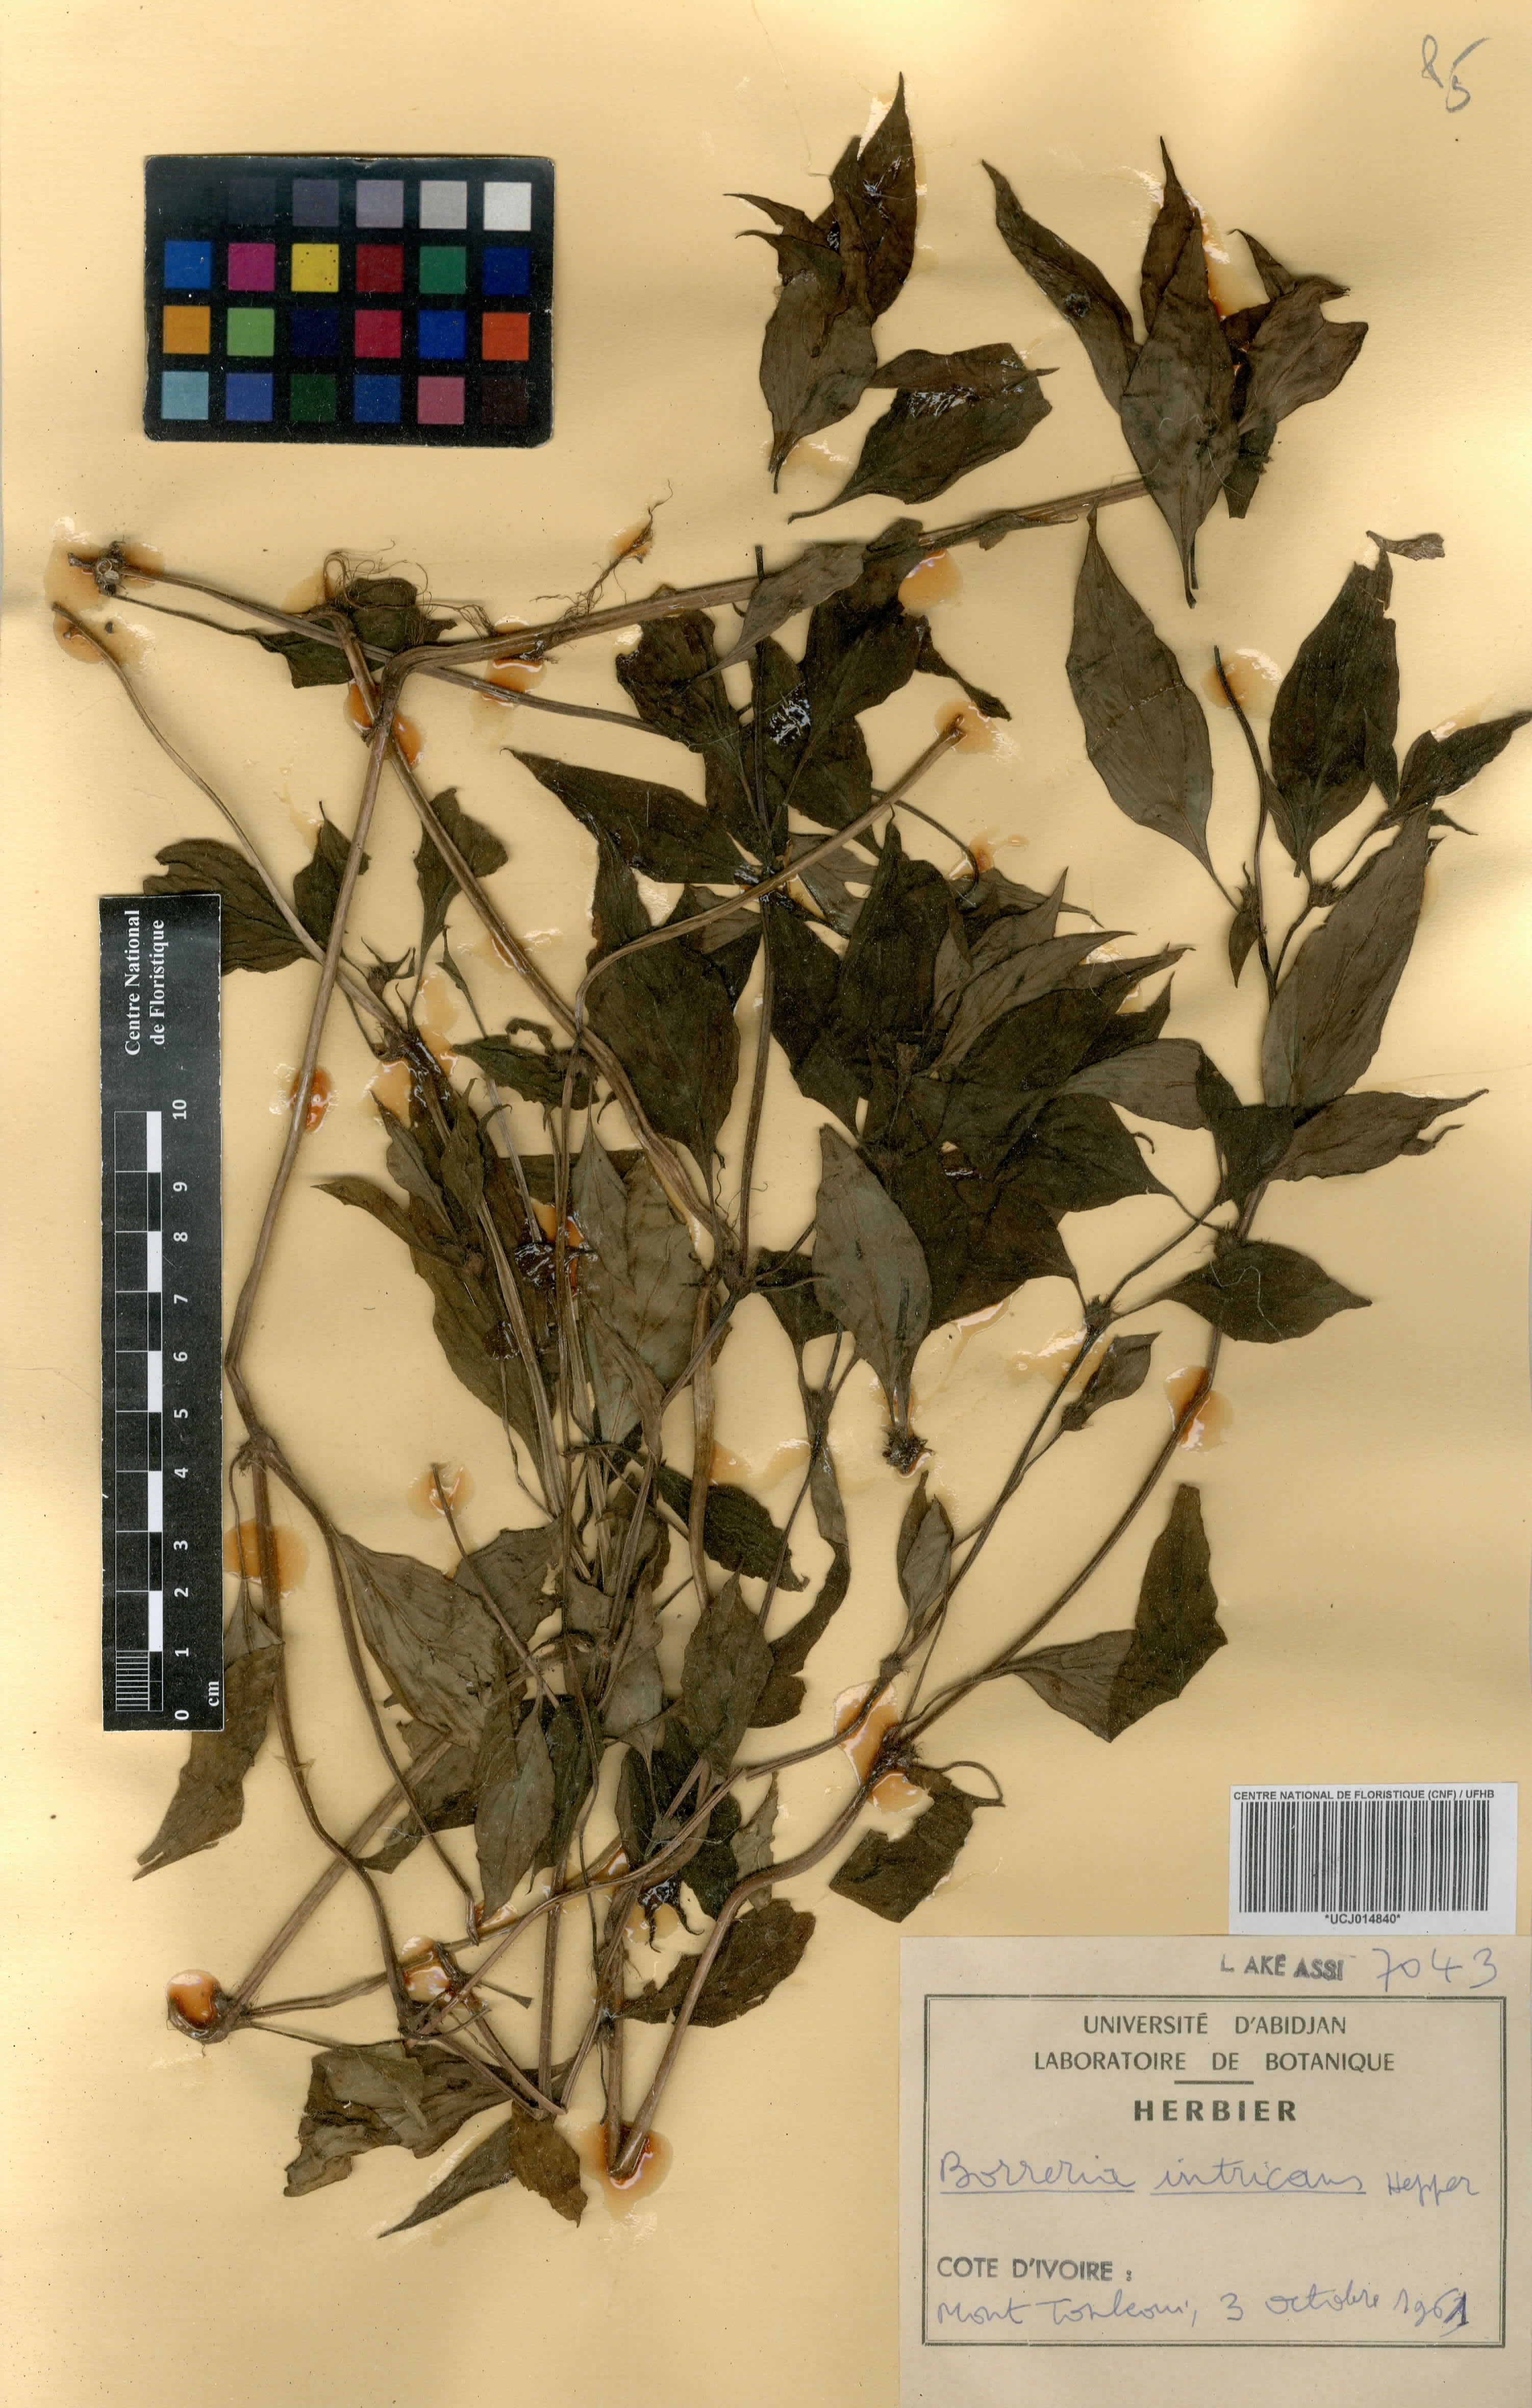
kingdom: Plantae
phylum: Tracheophyta
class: Magnoliopsida
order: Gentianales
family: Rubiaceae
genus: Spermacoce
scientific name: Spermacoce intricans
